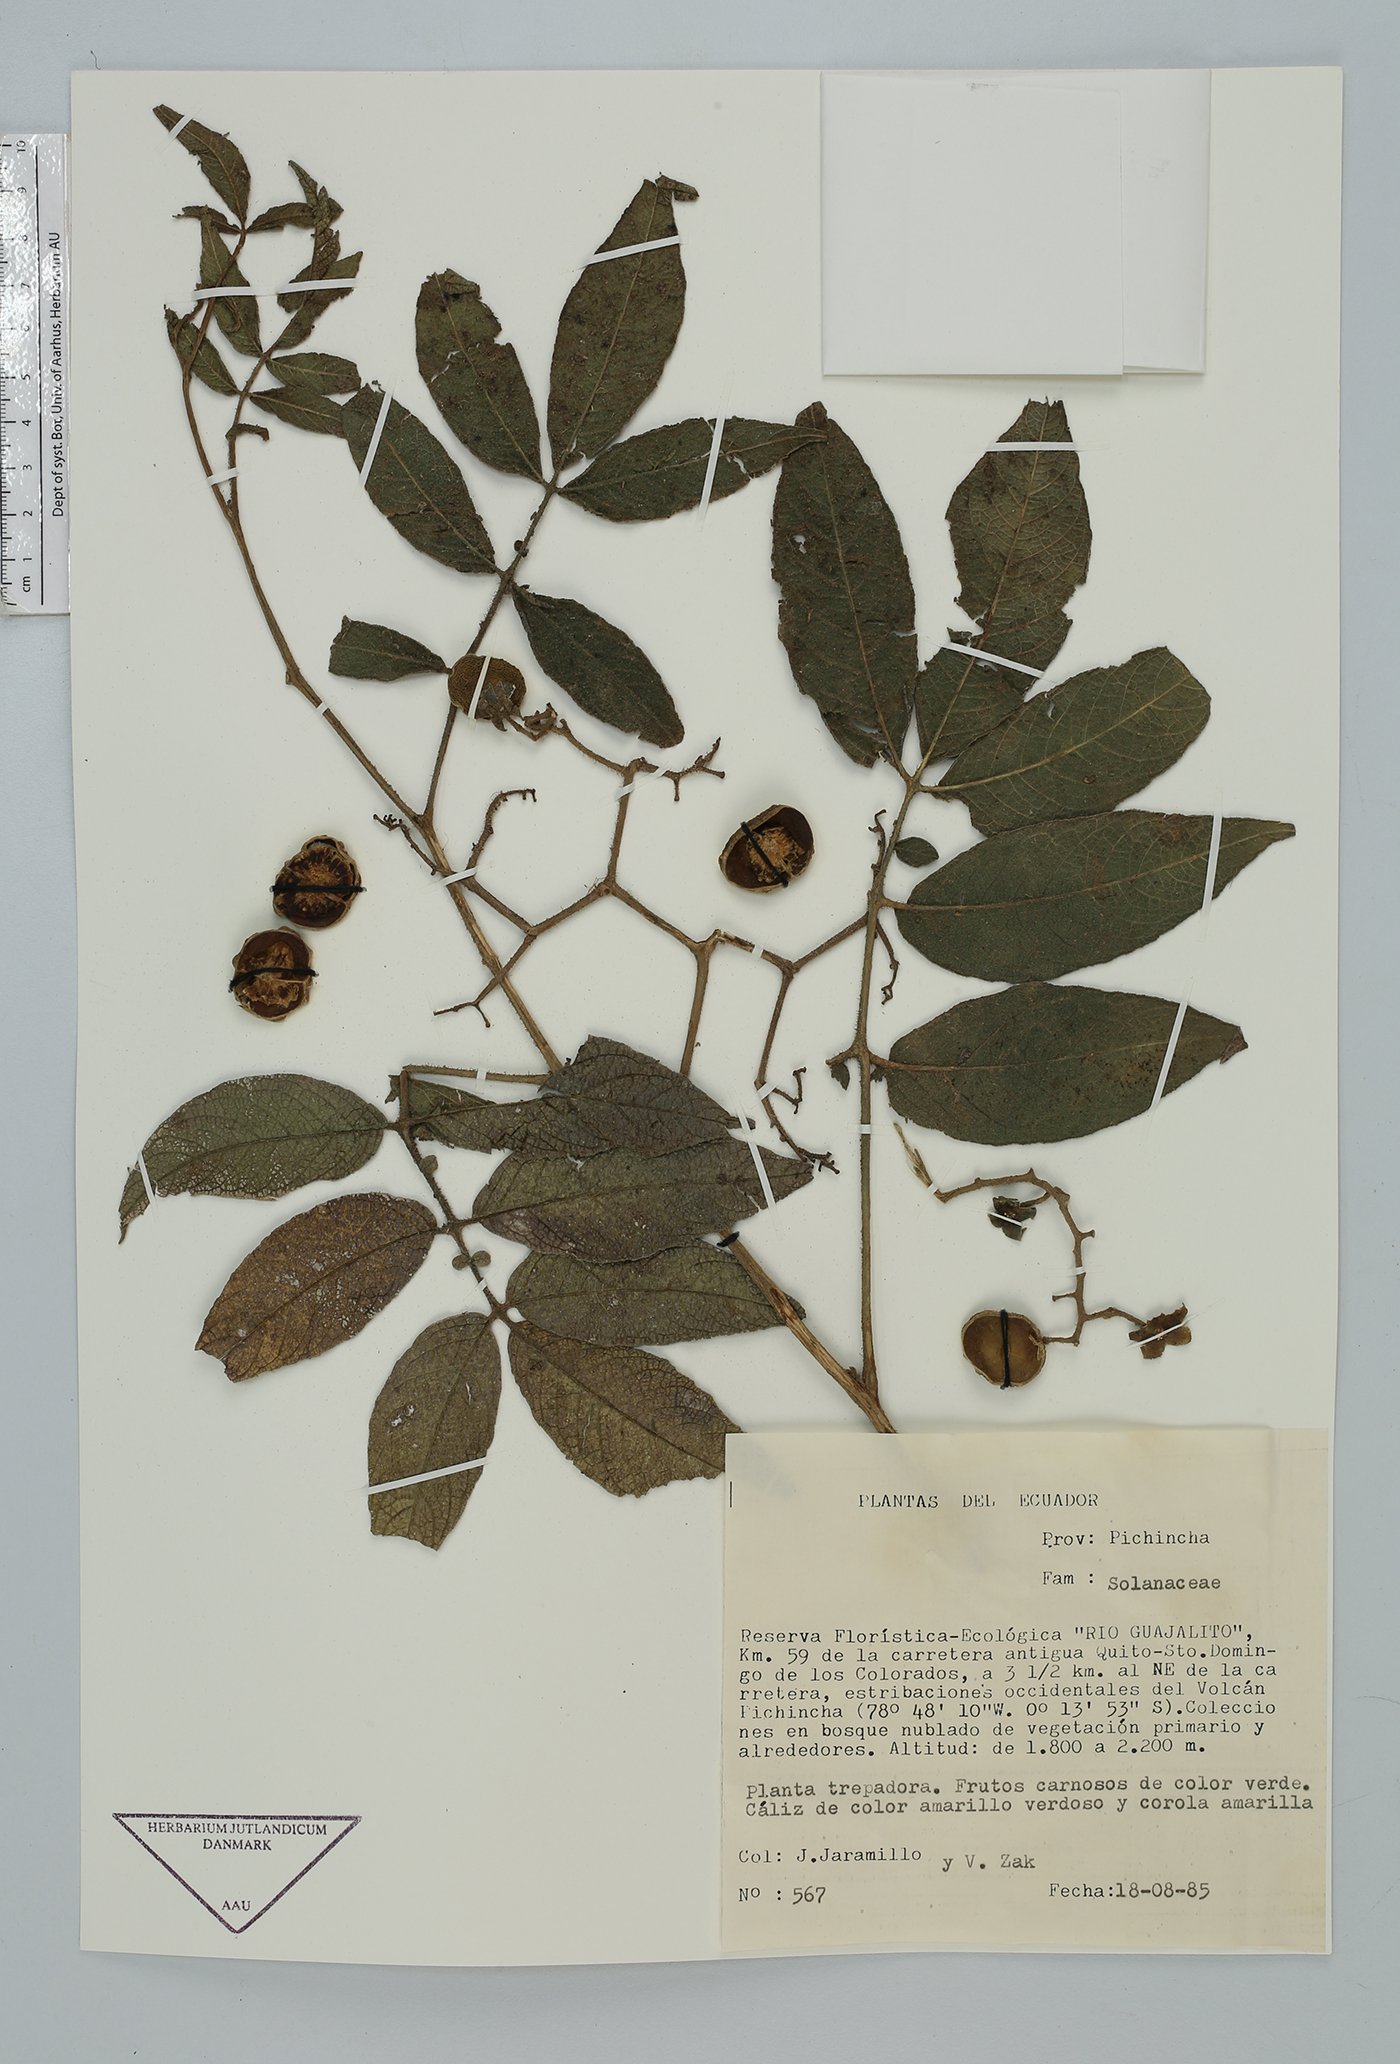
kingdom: Plantae
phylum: Tracheophyta
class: Magnoliopsida
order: Solanales
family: Solanaceae
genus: Solanum
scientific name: Solanum
